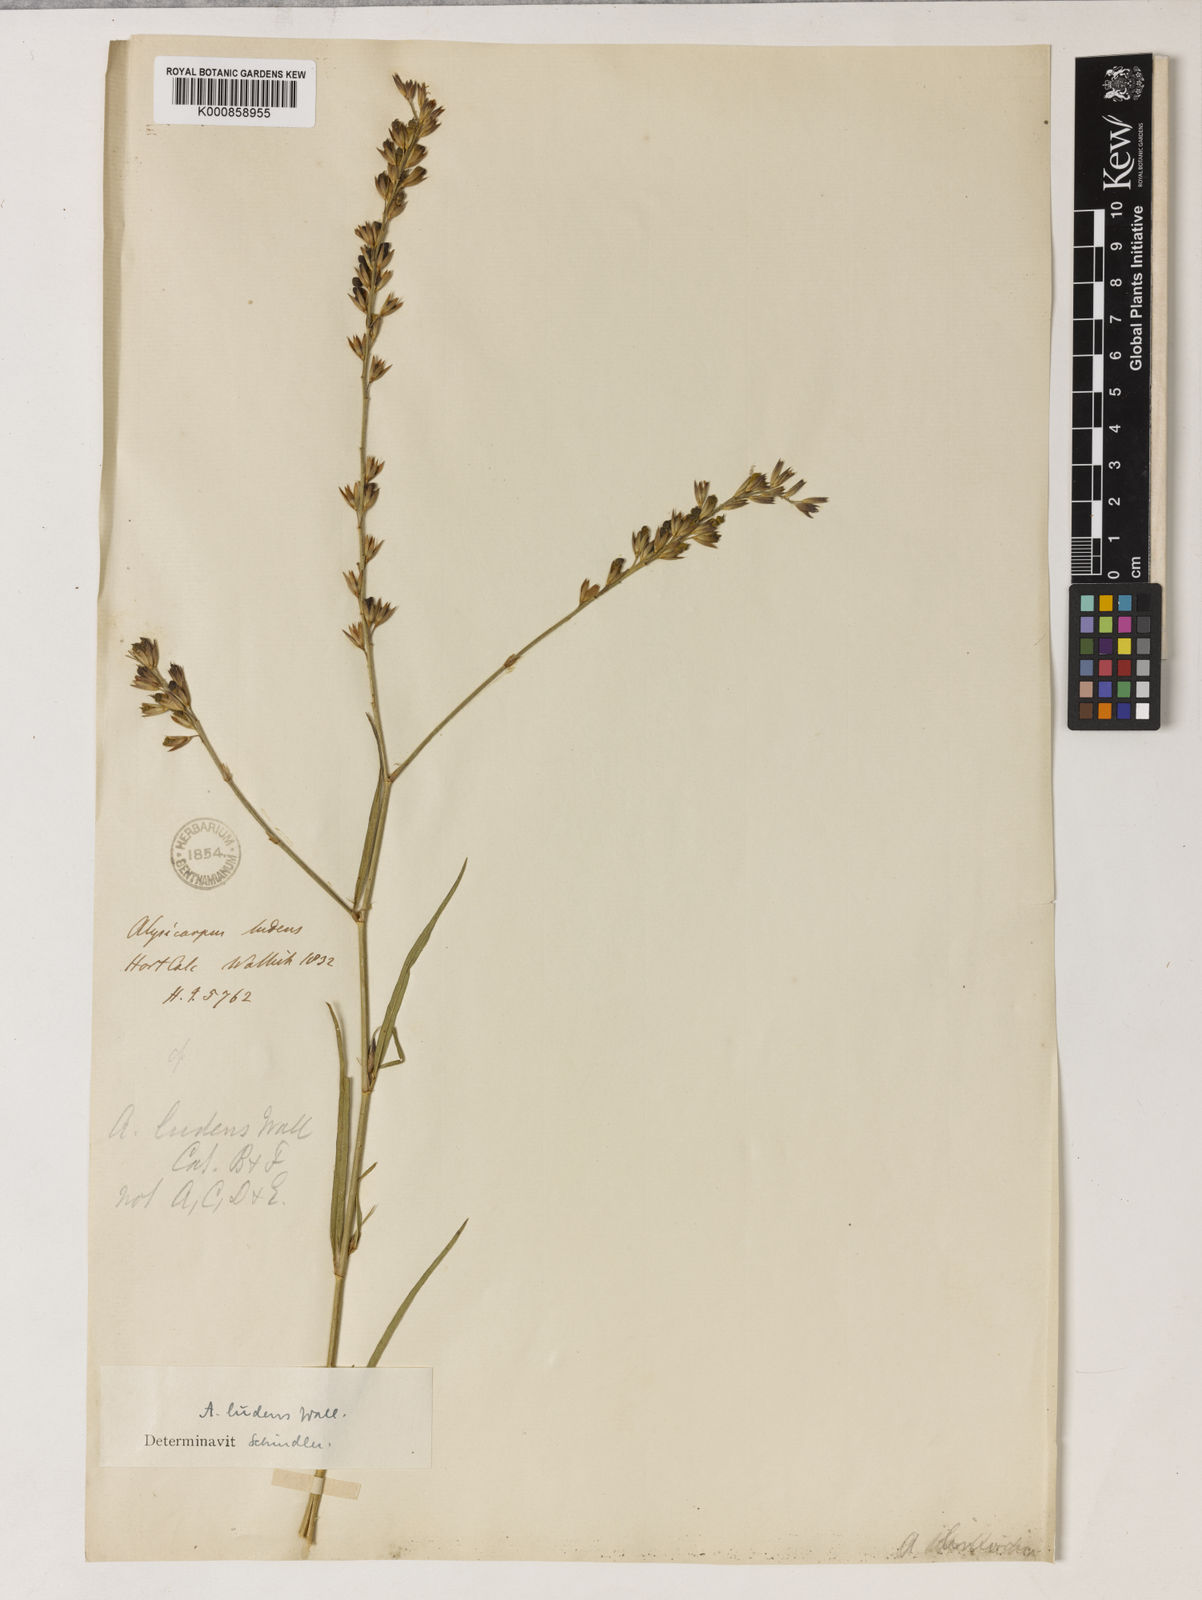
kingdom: Plantae
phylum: Tracheophyta
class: Magnoliopsida
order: Fabales
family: Fabaceae
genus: Alysicarpus
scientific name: Alysicarpus
